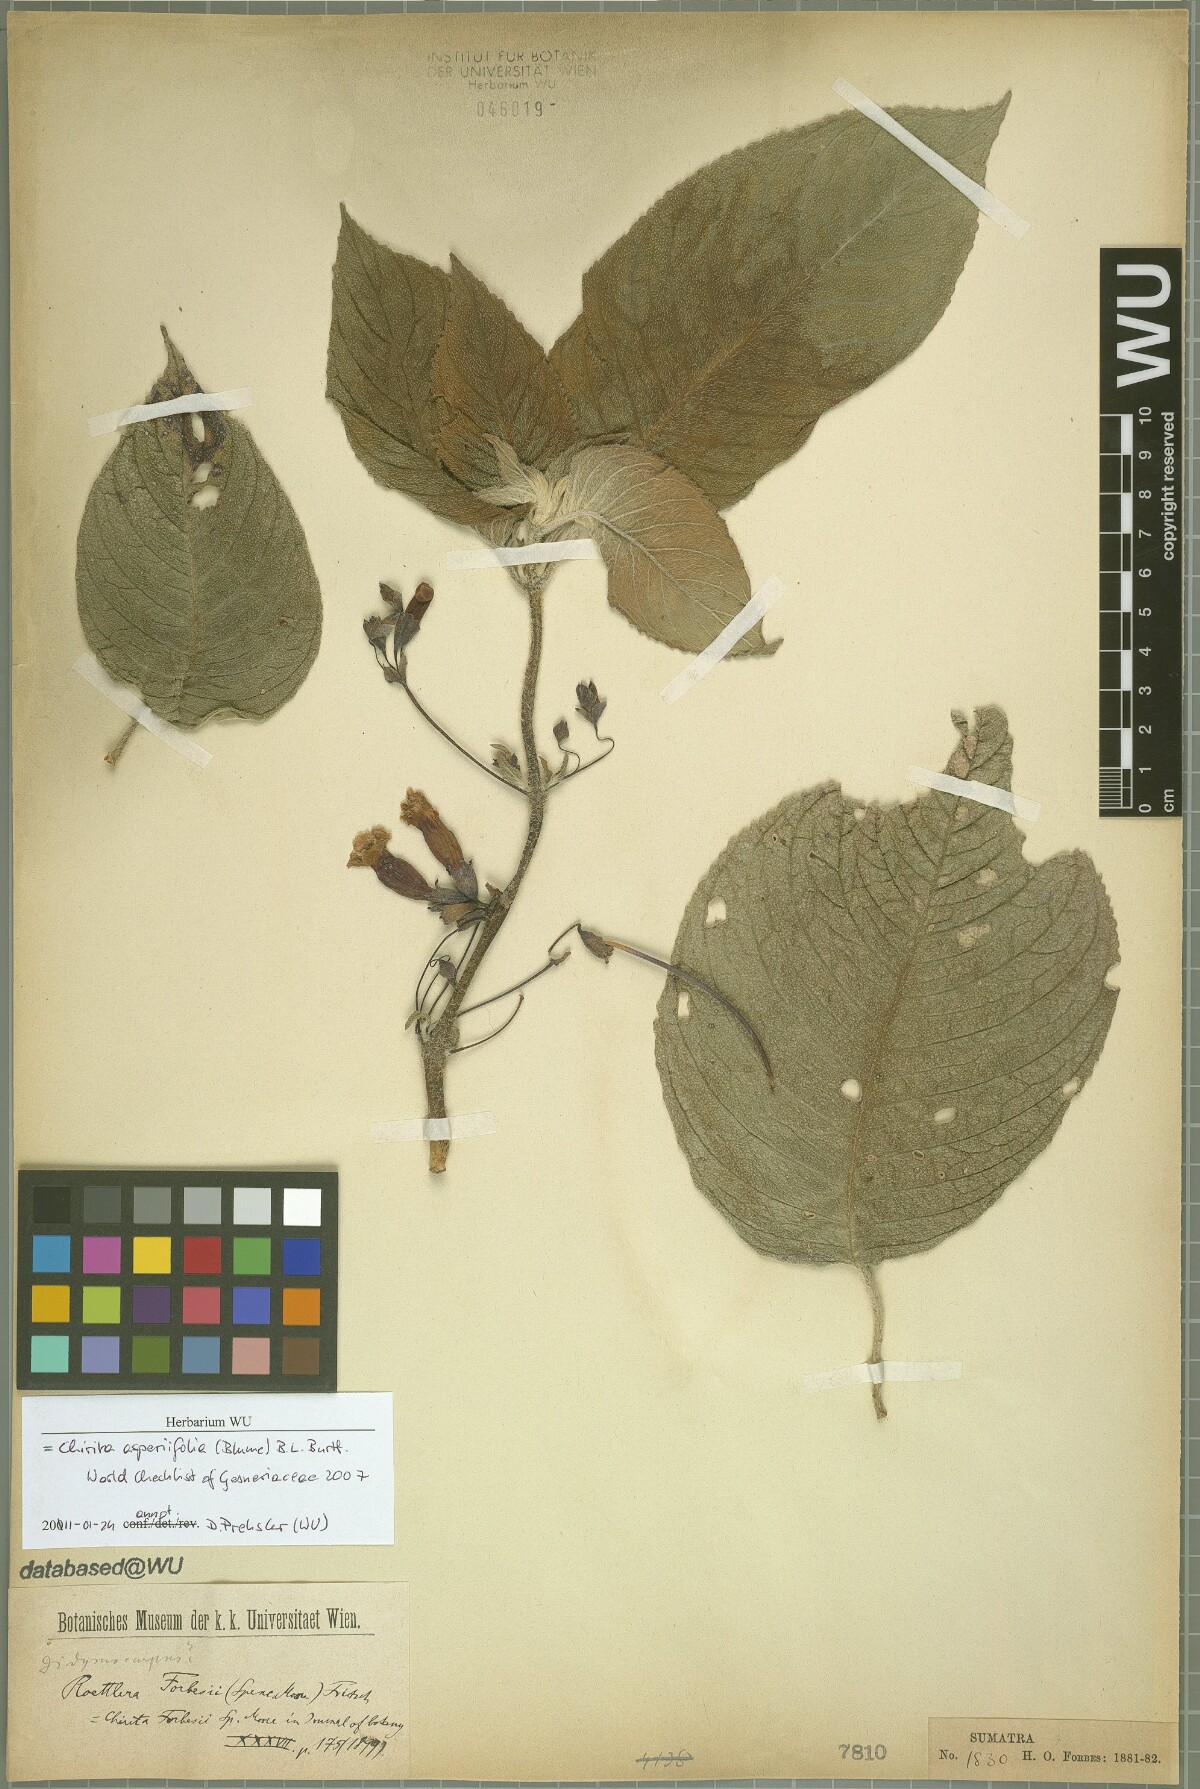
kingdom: Plantae
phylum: Tracheophyta
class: Magnoliopsida
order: Lamiales
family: Gesneriaceae
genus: Liebigia
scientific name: Liebigia barbata
